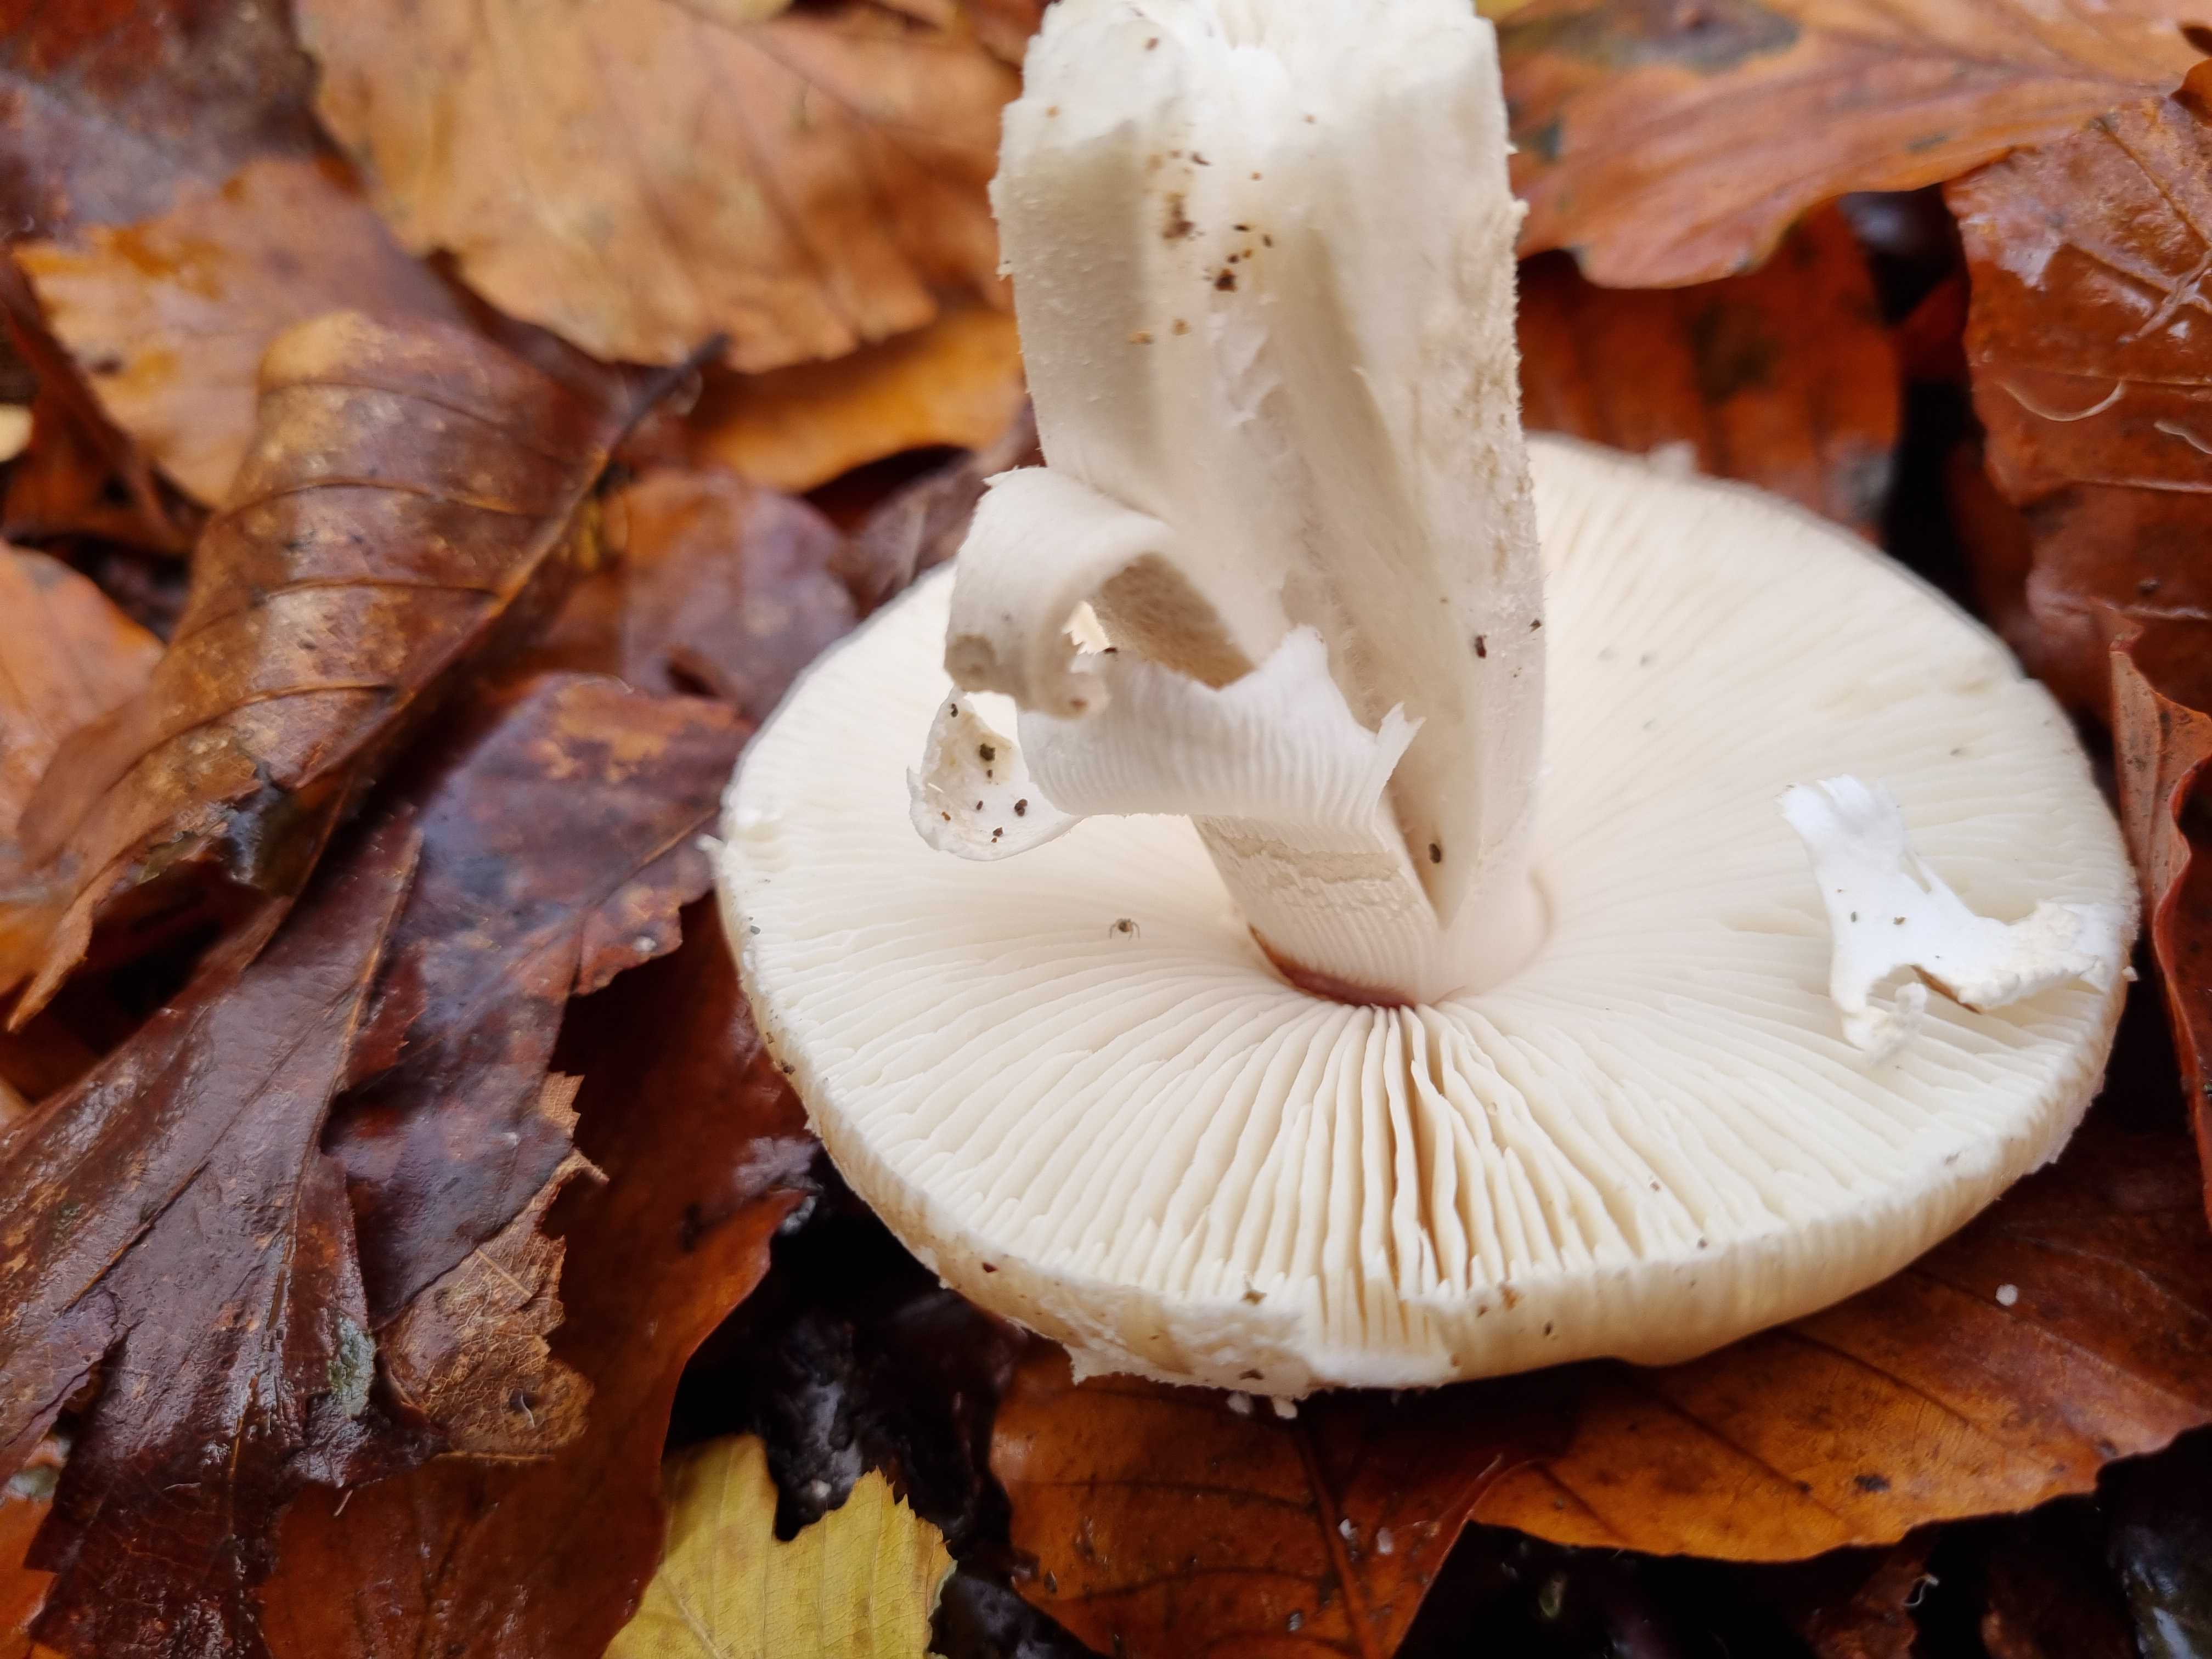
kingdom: Fungi
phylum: Basidiomycota
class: Agaricomycetes
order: Agaricales
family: Amanitaceae
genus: Amanita
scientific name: Amanita
